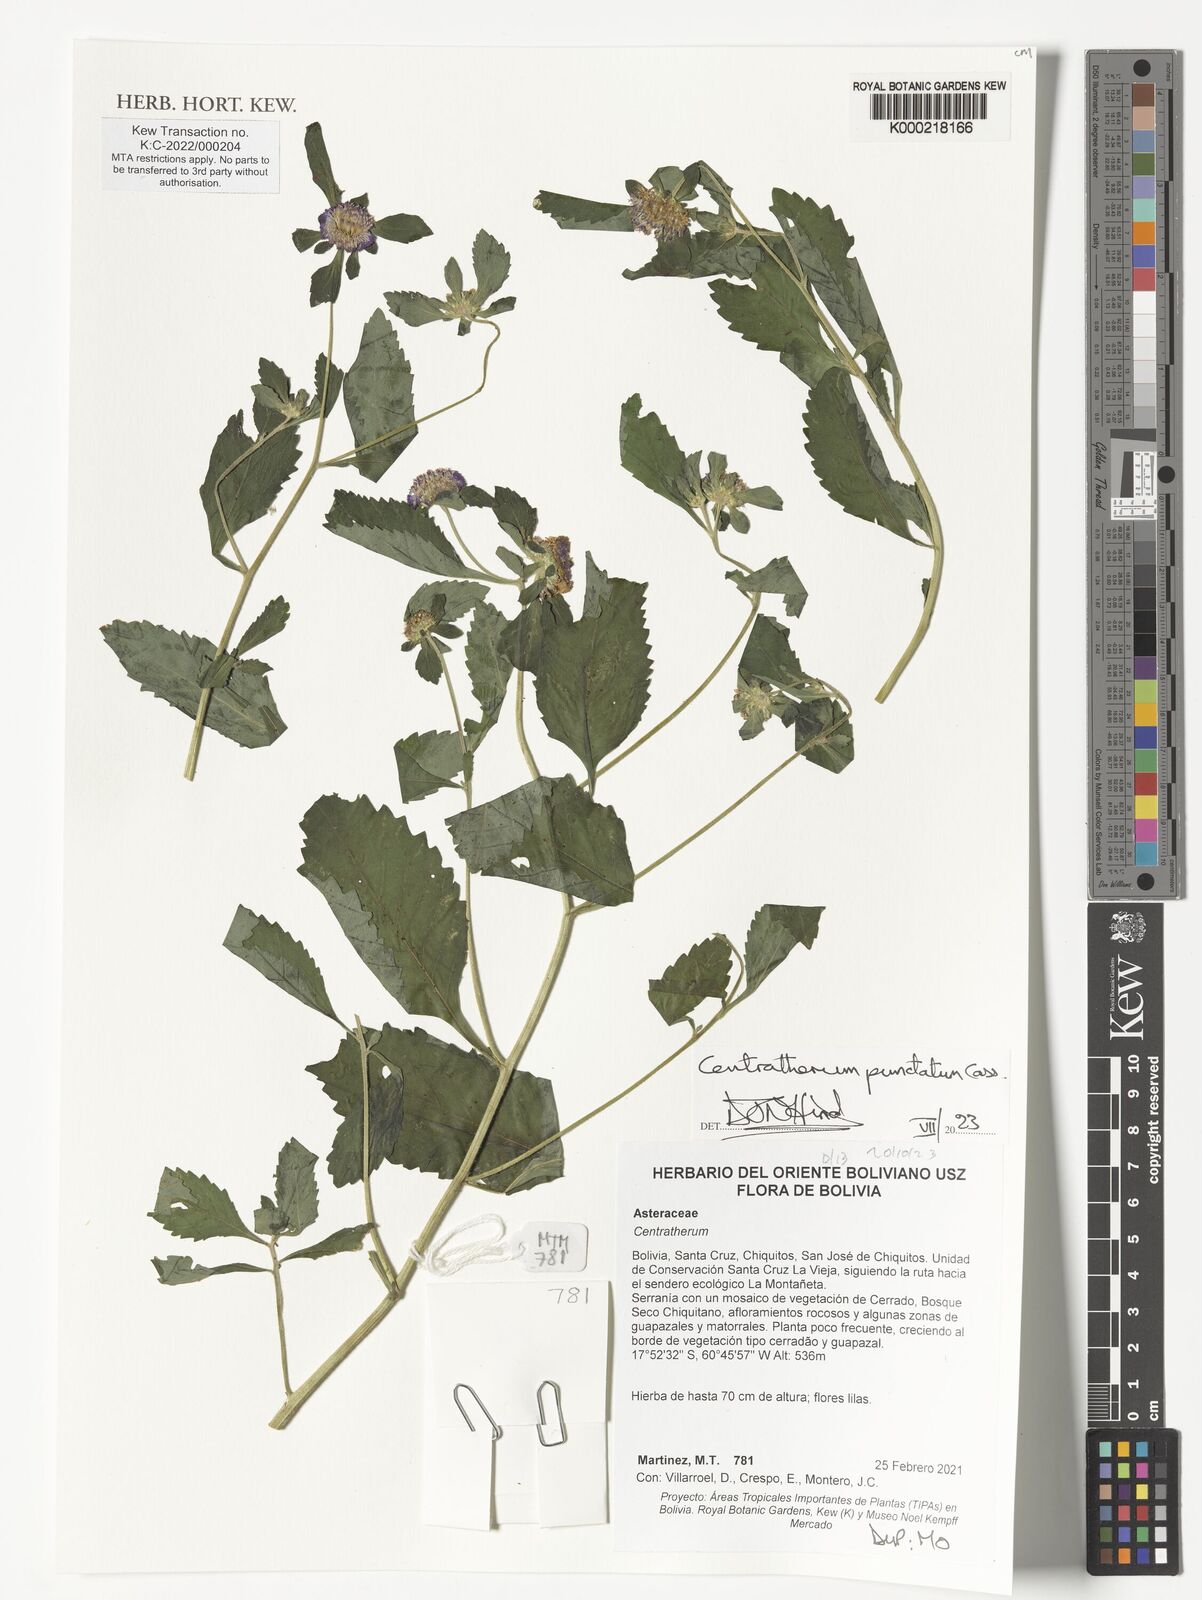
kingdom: Plantae
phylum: Tracheophyta
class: Magnoliopsida
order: Asterales
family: Asteraceae
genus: Centratherum
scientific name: Centratherum punctatum
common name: Larkdaisy
